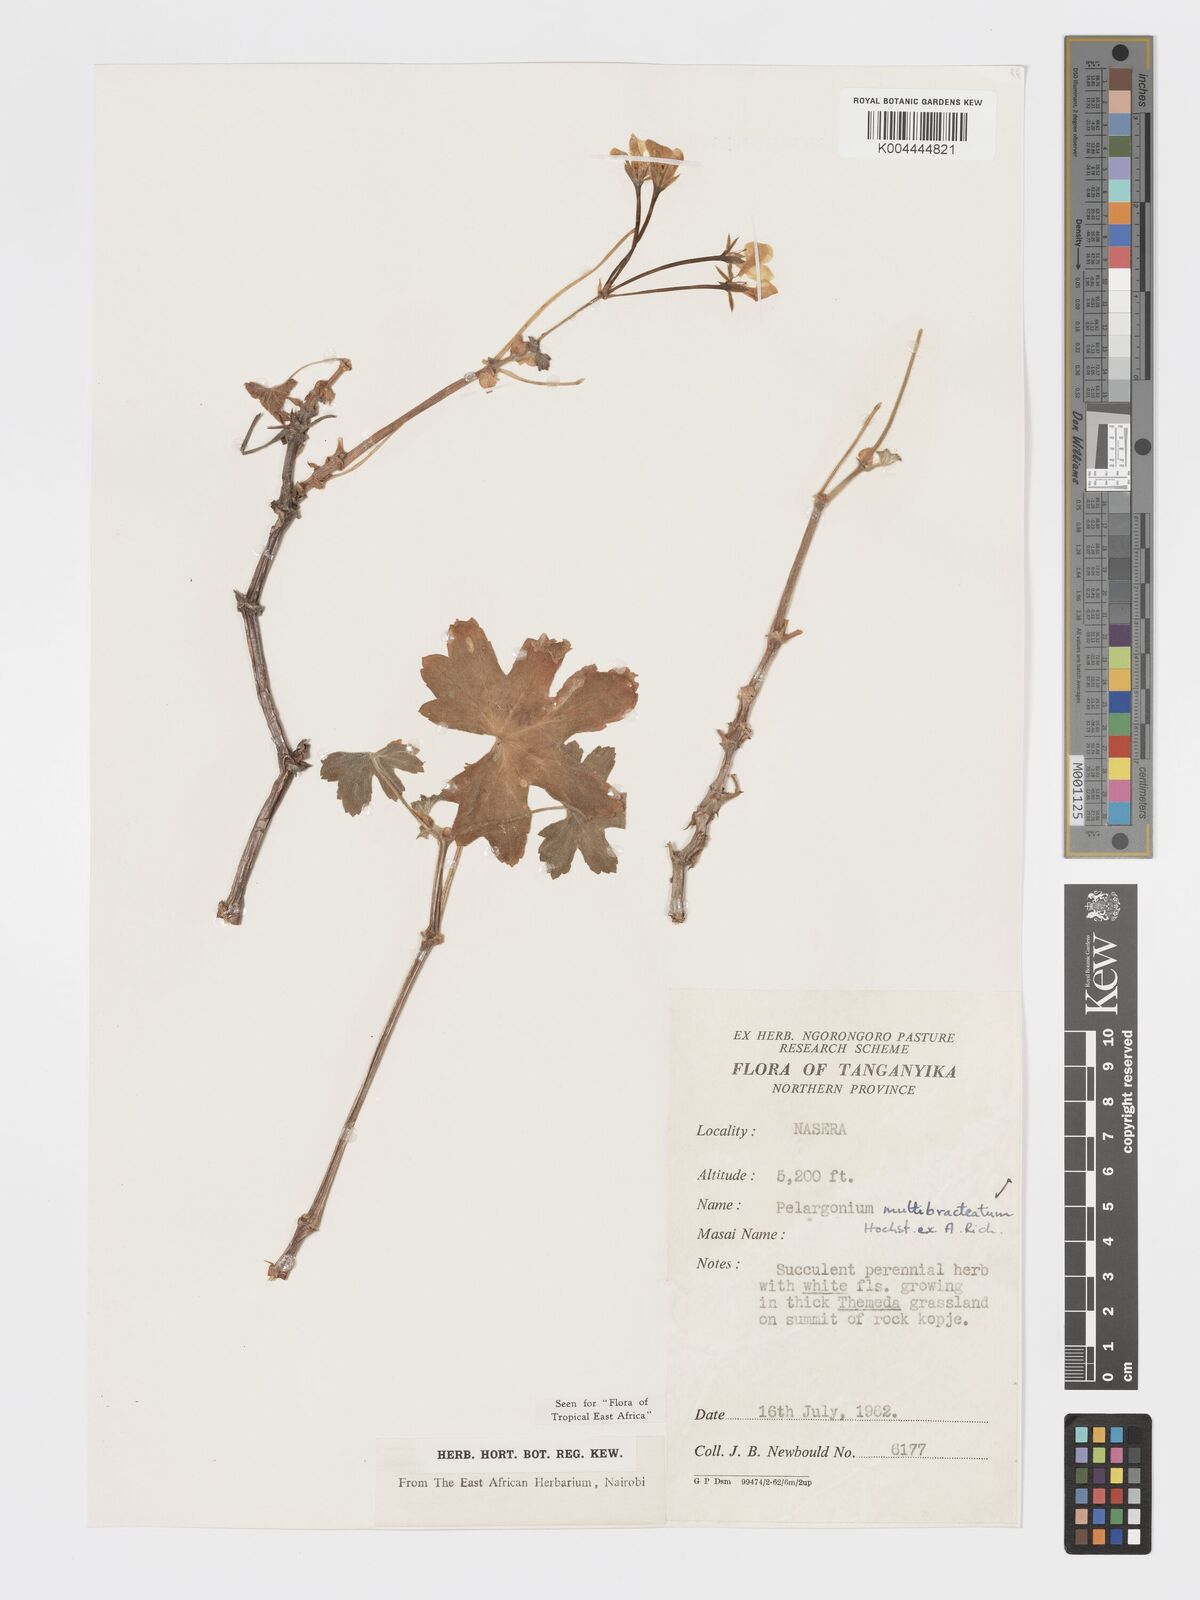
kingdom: Plantae
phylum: Tracheophyta
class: Magnoliopsida
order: Geraniales
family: Geraniaceae
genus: Pelargonium
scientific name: Pelargonium alchemilloides
